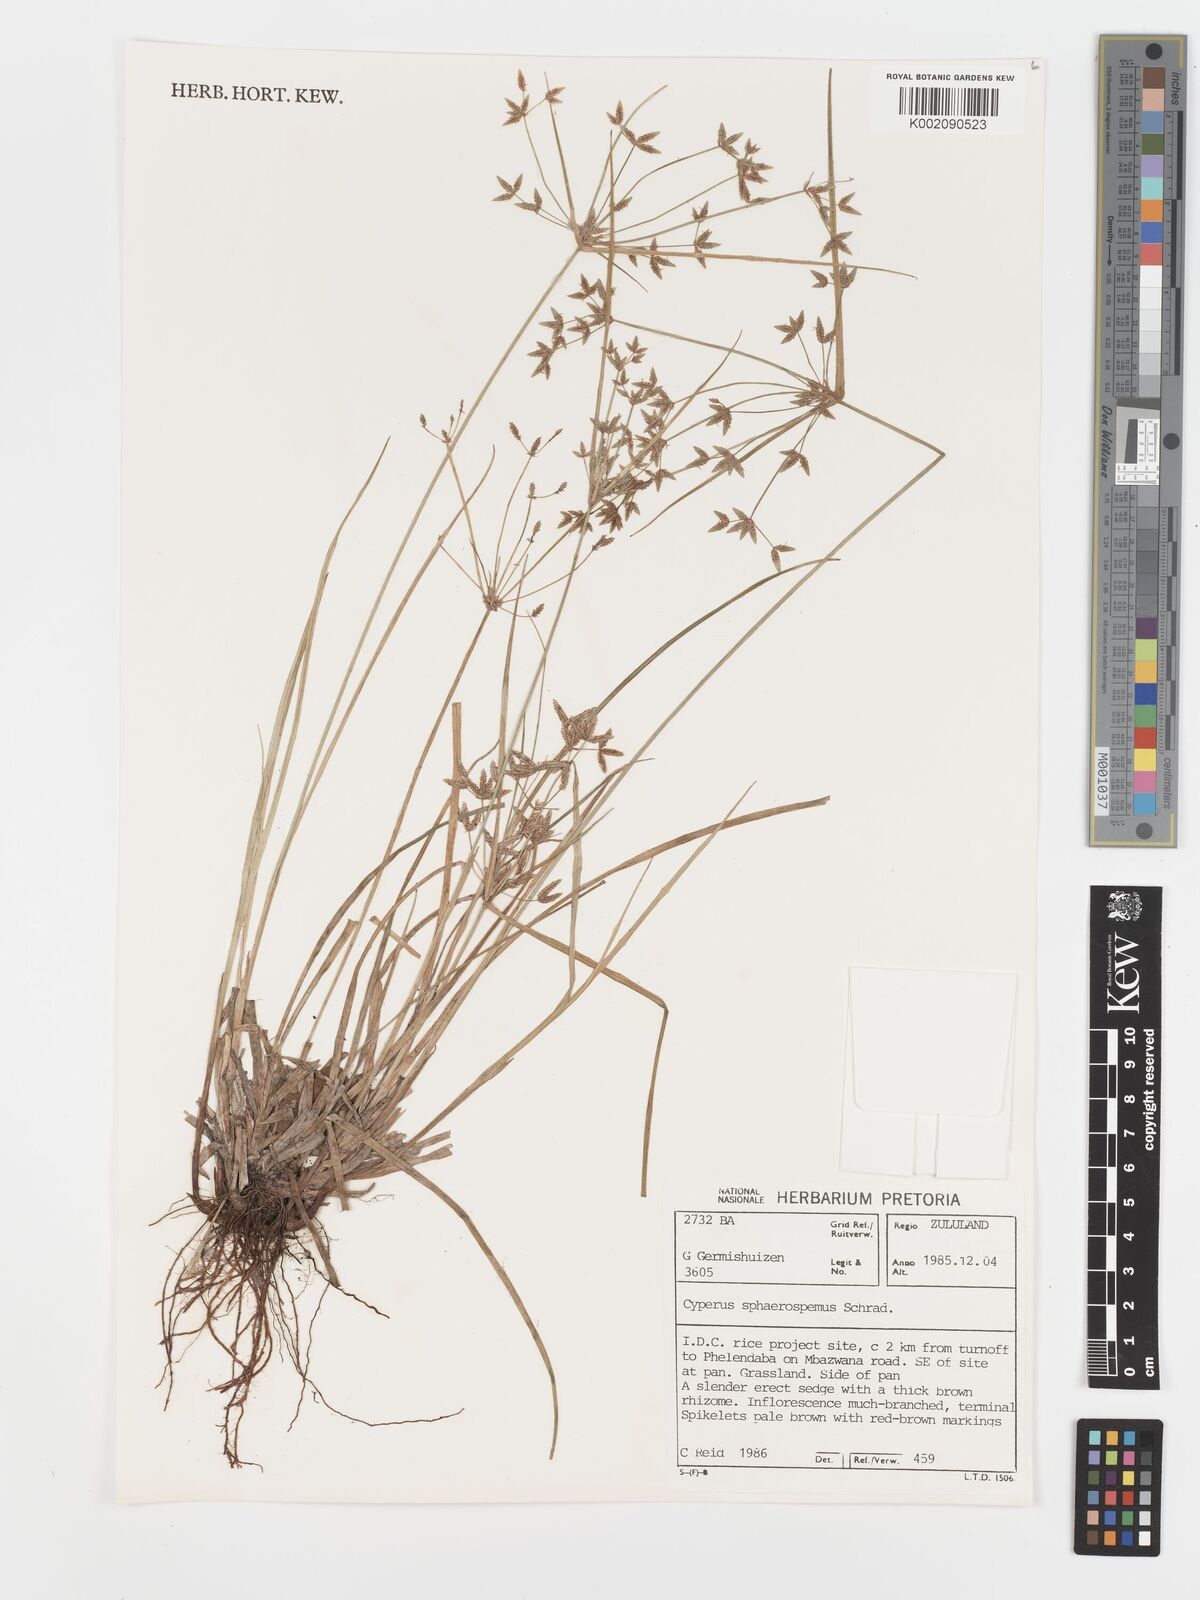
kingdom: Plantae
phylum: Tracheophyta
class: Liliopsida
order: Poales
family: Cyperaceae
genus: Cyperus
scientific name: Cyperus sphaerospermus
